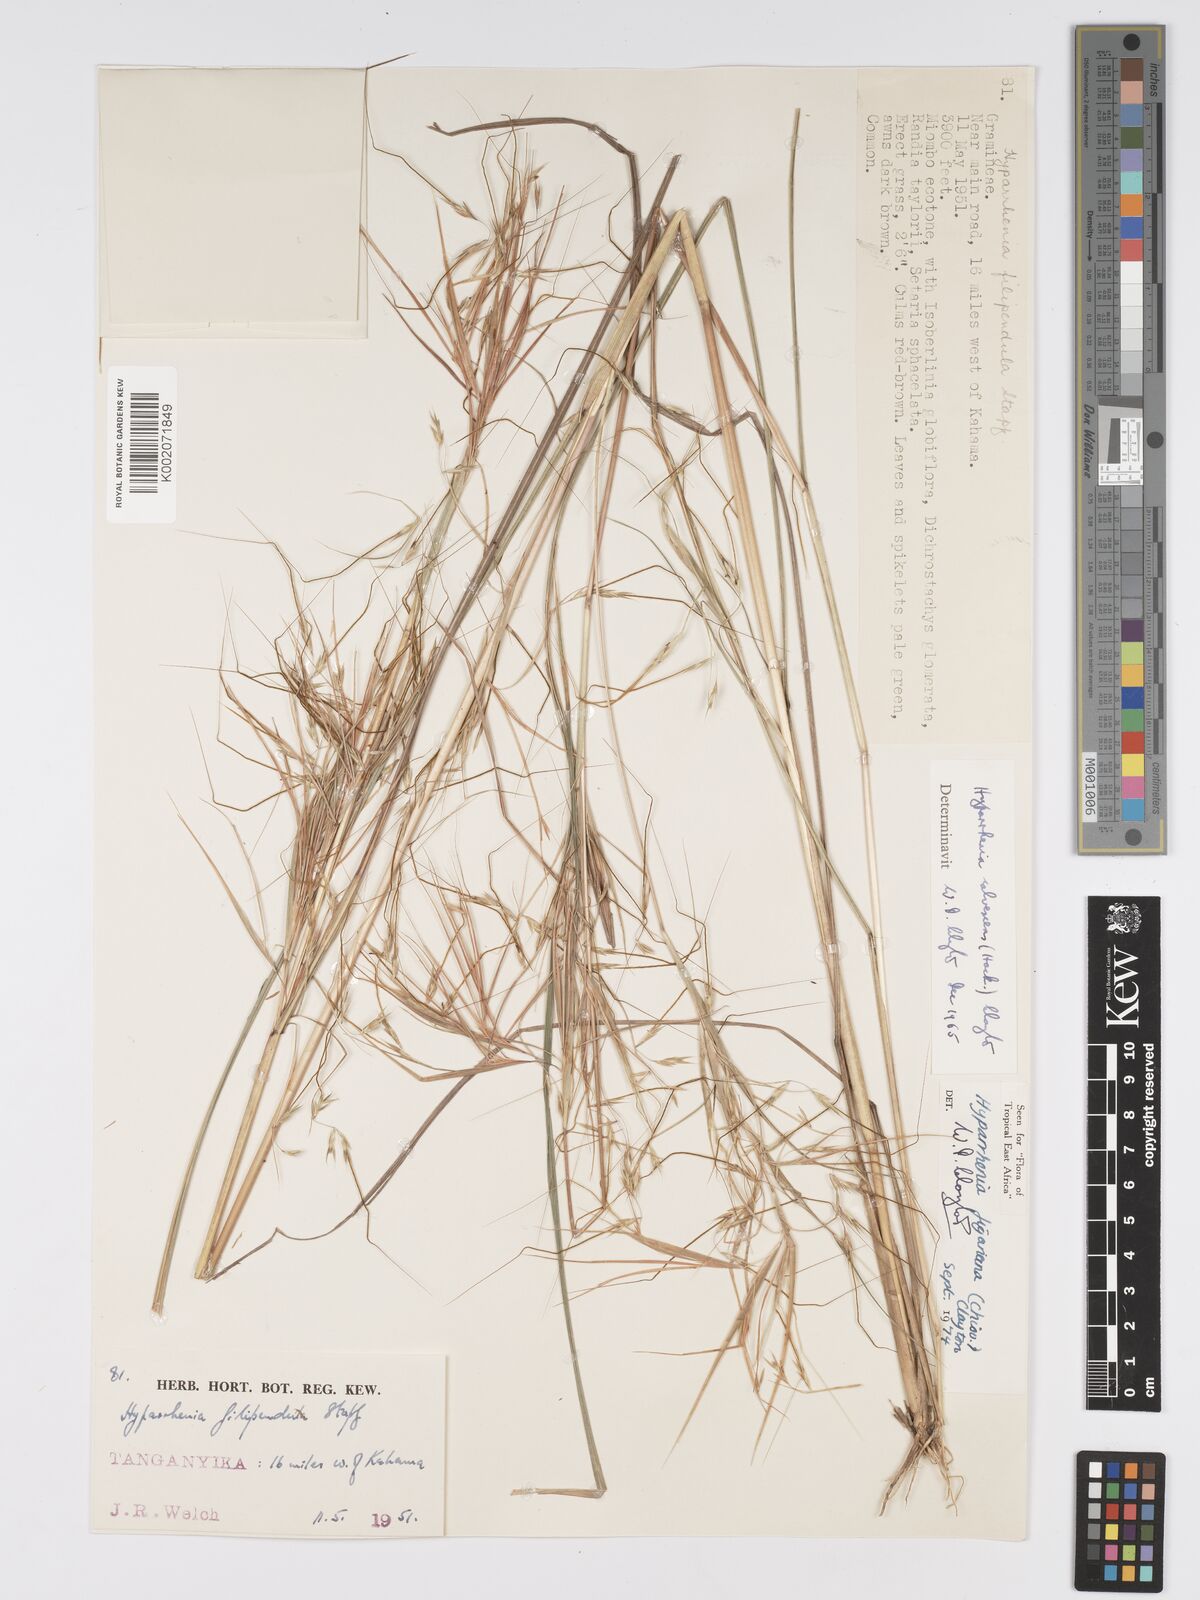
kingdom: Plantae
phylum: Tracheophyta
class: Liliopsida
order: Poales
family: Poaceae
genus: Hyparrhenia
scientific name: Hyparrhenia figariana
